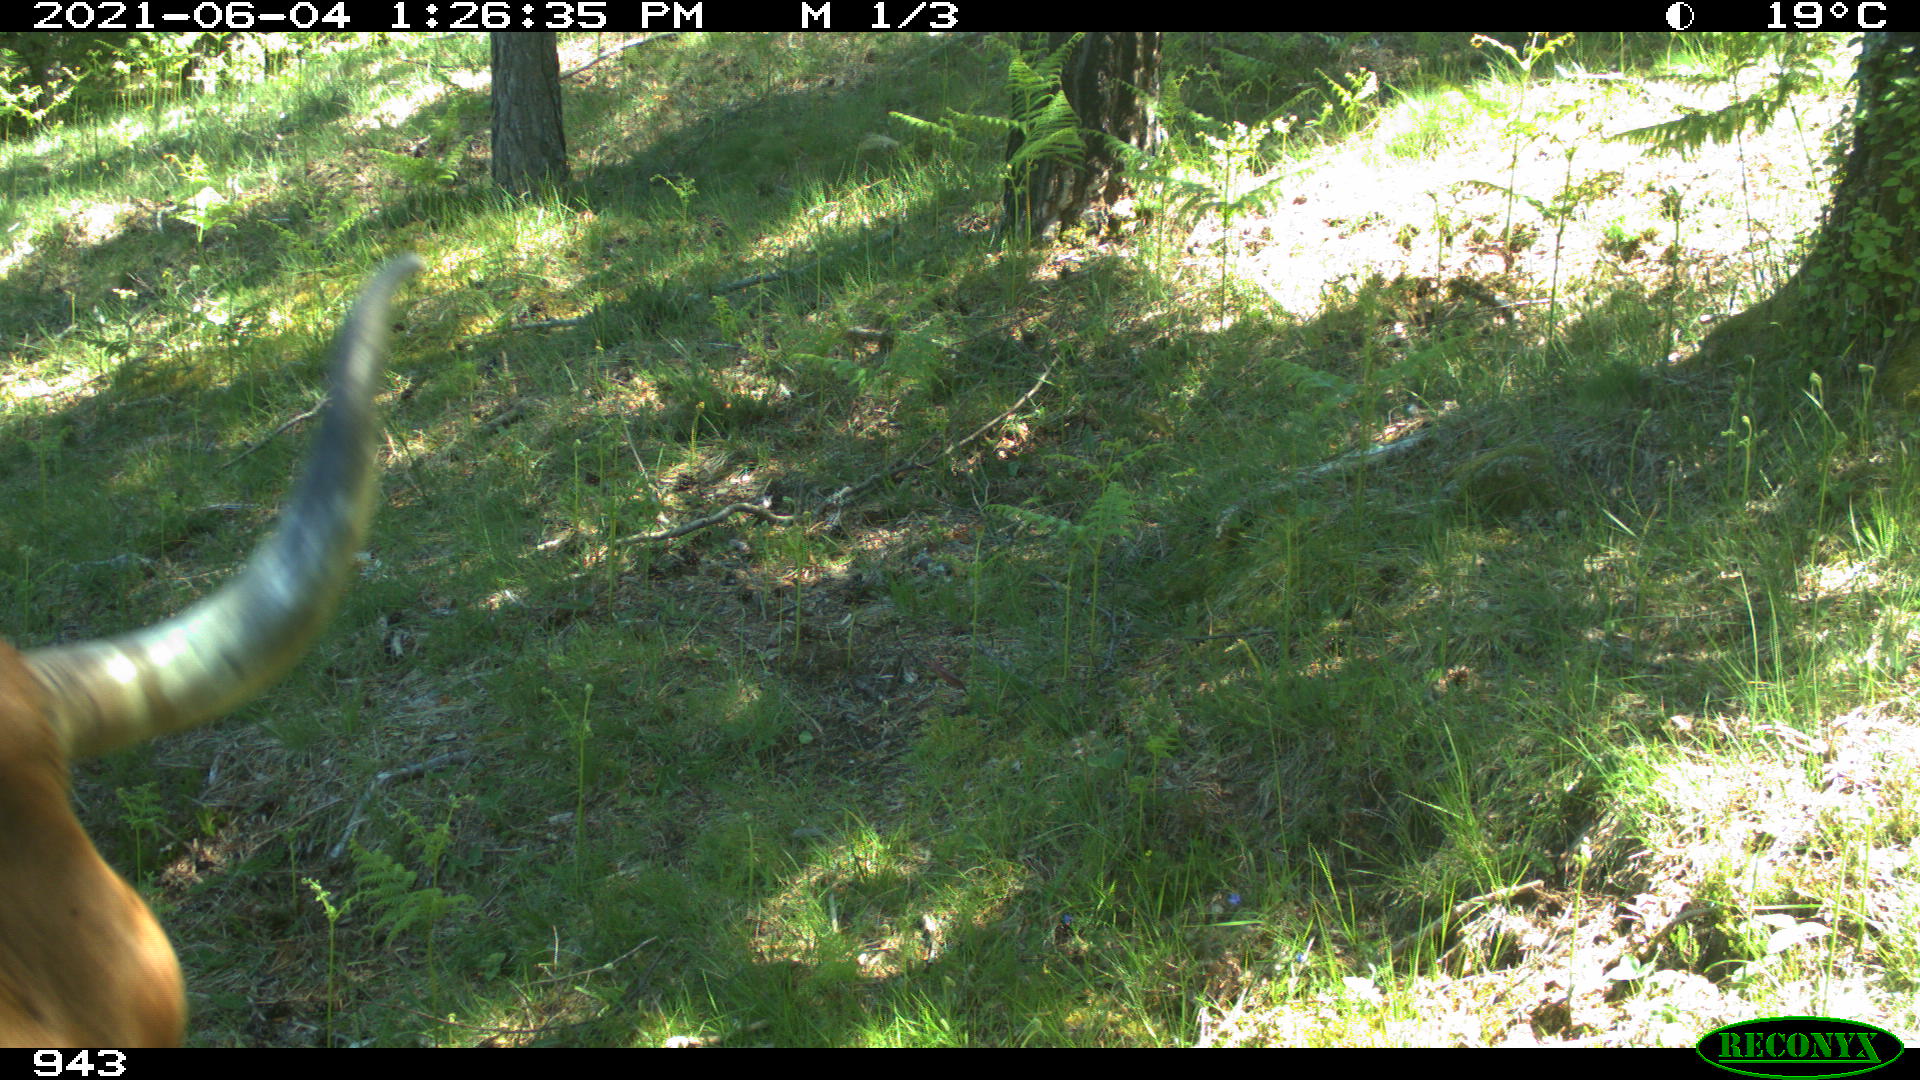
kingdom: Animalia
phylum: Chordata
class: Mammalia
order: Artiodactyla
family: Bovidae
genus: Bos
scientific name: Bos taurus
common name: Domesticated cattle
